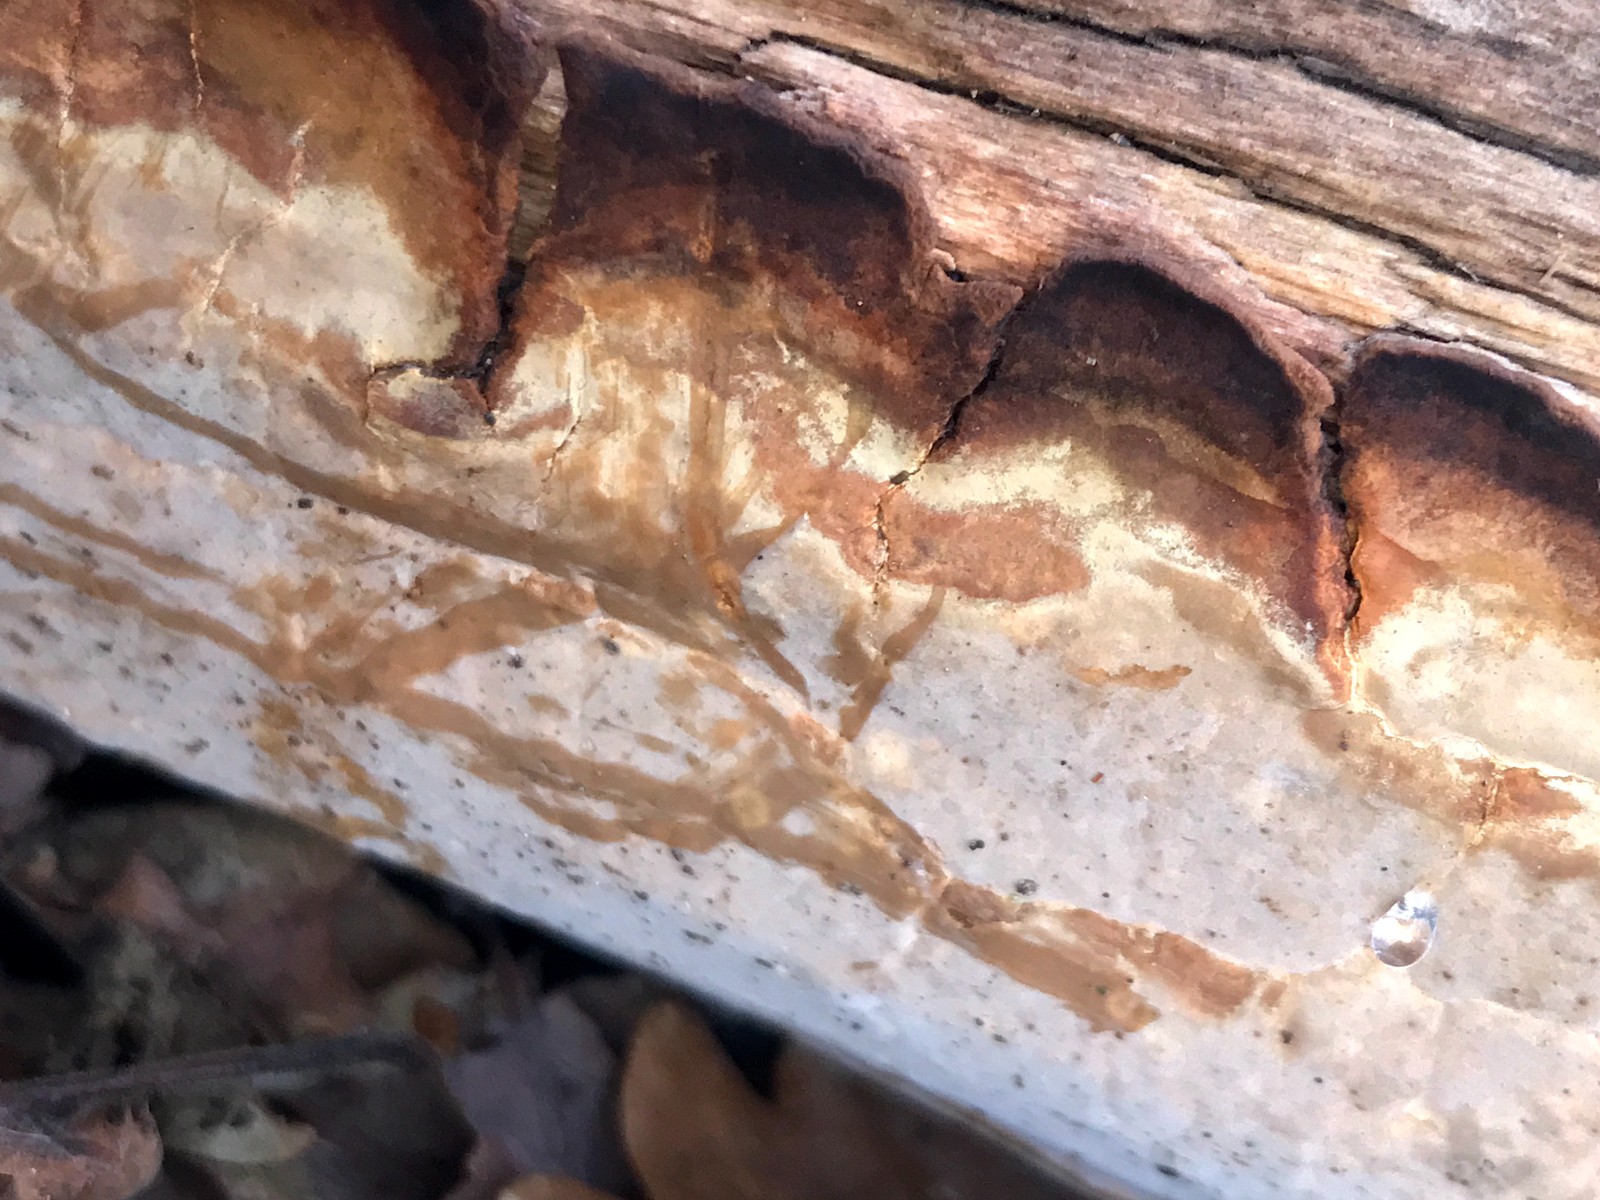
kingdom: Fungi
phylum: Basidiomycota
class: Agaricomycetes
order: Russulales
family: Peniophoraceae
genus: Scytinostroma
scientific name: Scytinostroma hemidichophyticum
